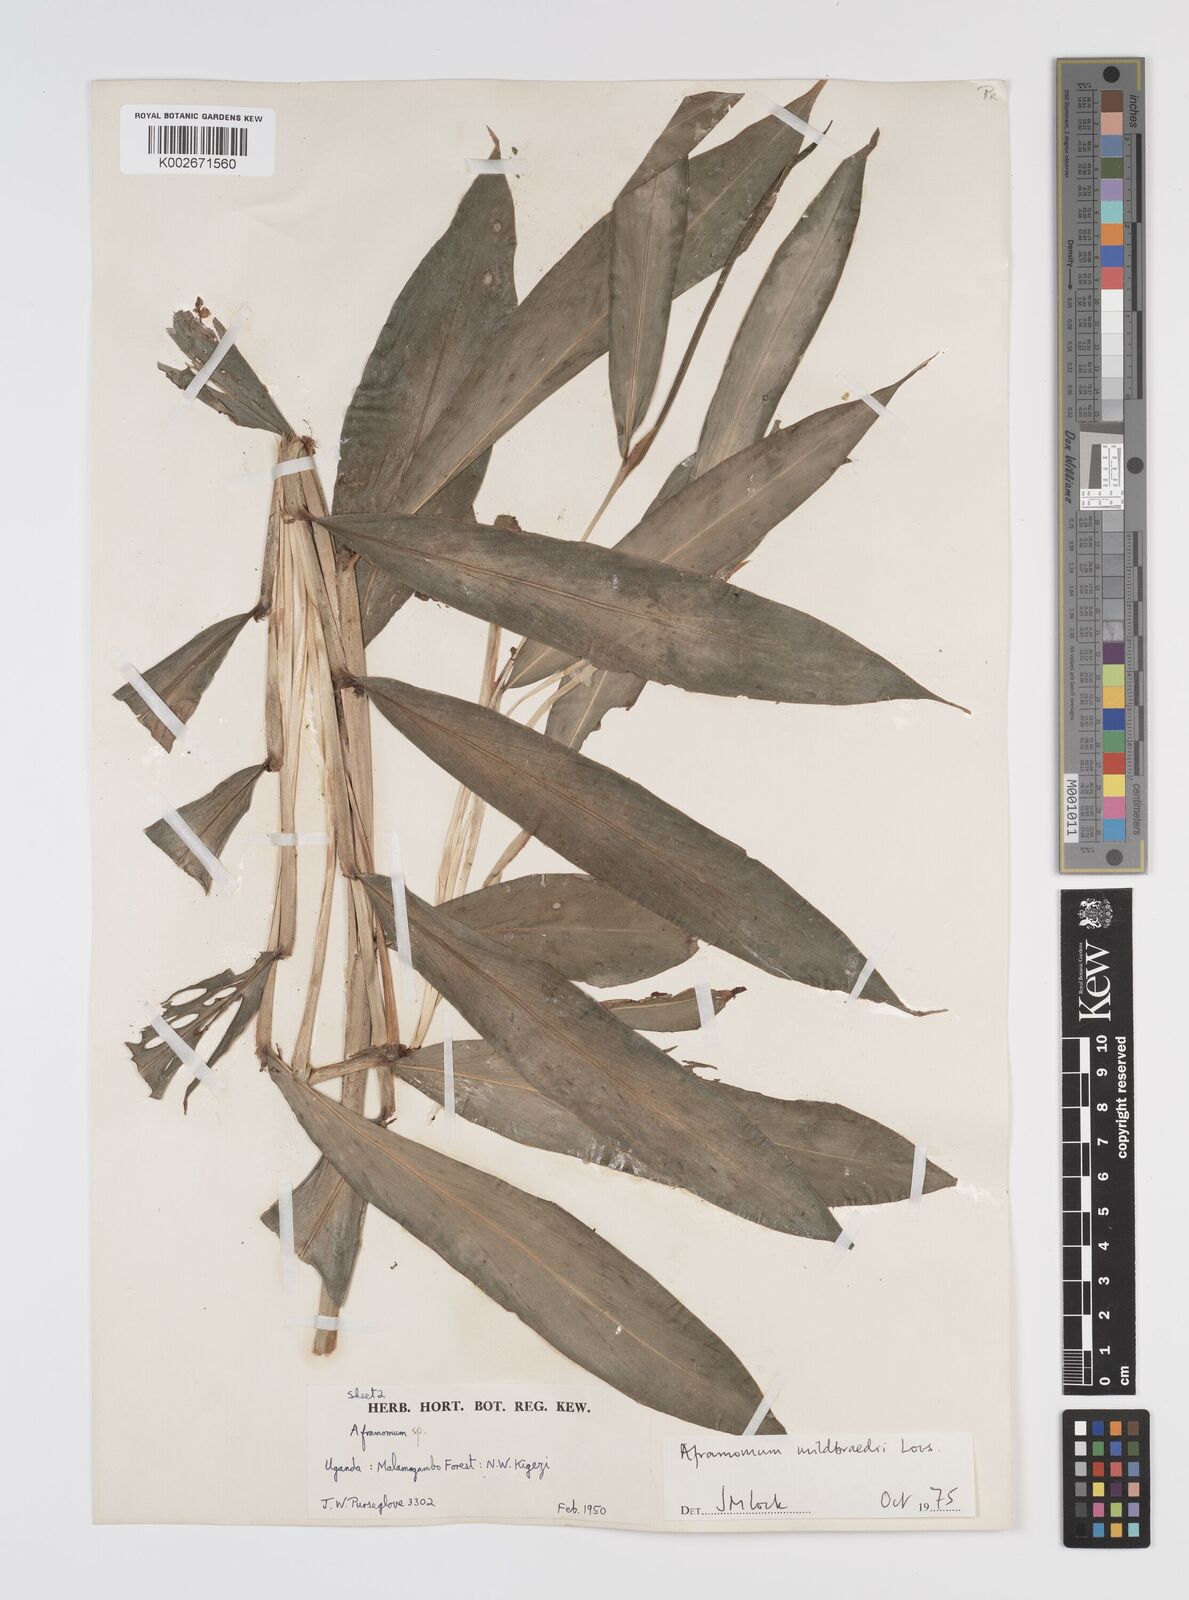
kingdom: Plantae
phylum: Tracheophyta
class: Liliopsida
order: Zingiberales
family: Zingiberaceae
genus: Aframomum
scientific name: Aframomum mildbraedii
